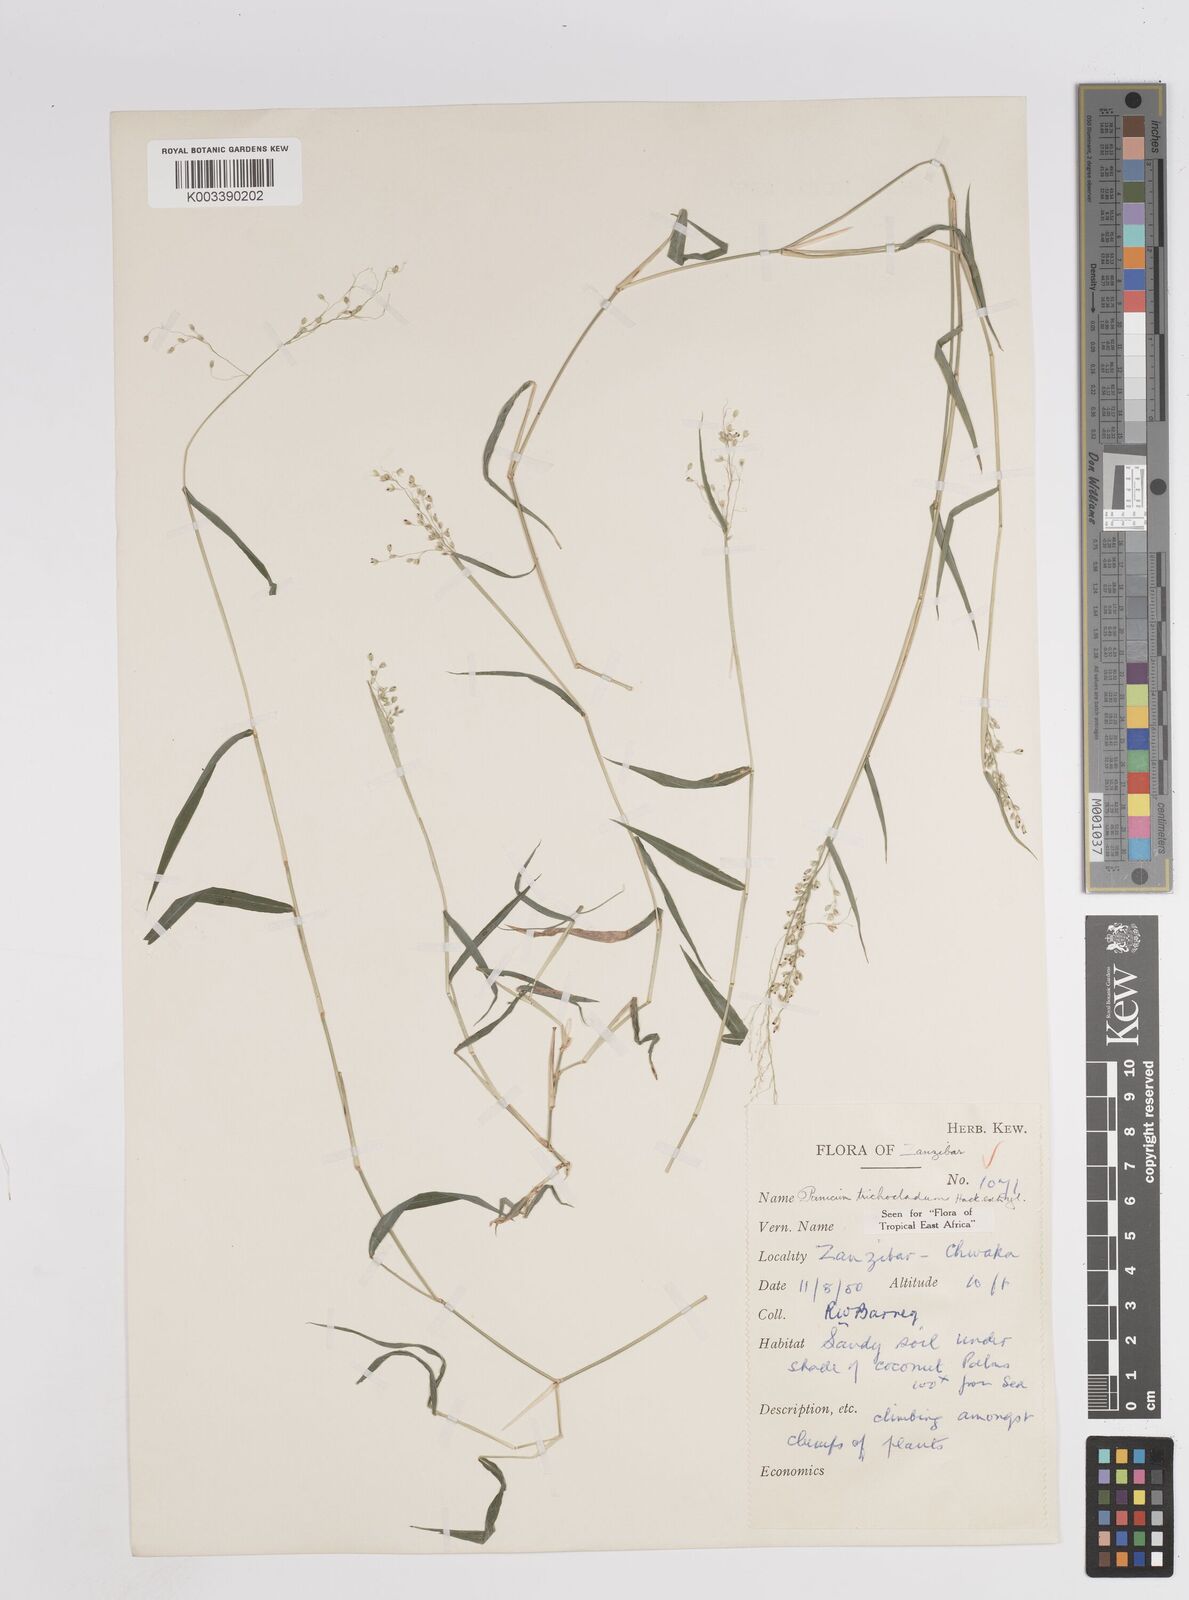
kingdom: Plantae
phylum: Tracheophyta
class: Liliopsida
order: Poales
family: Poaceae
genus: Panicum
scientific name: Panicum trichocladum
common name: Donkey grass
